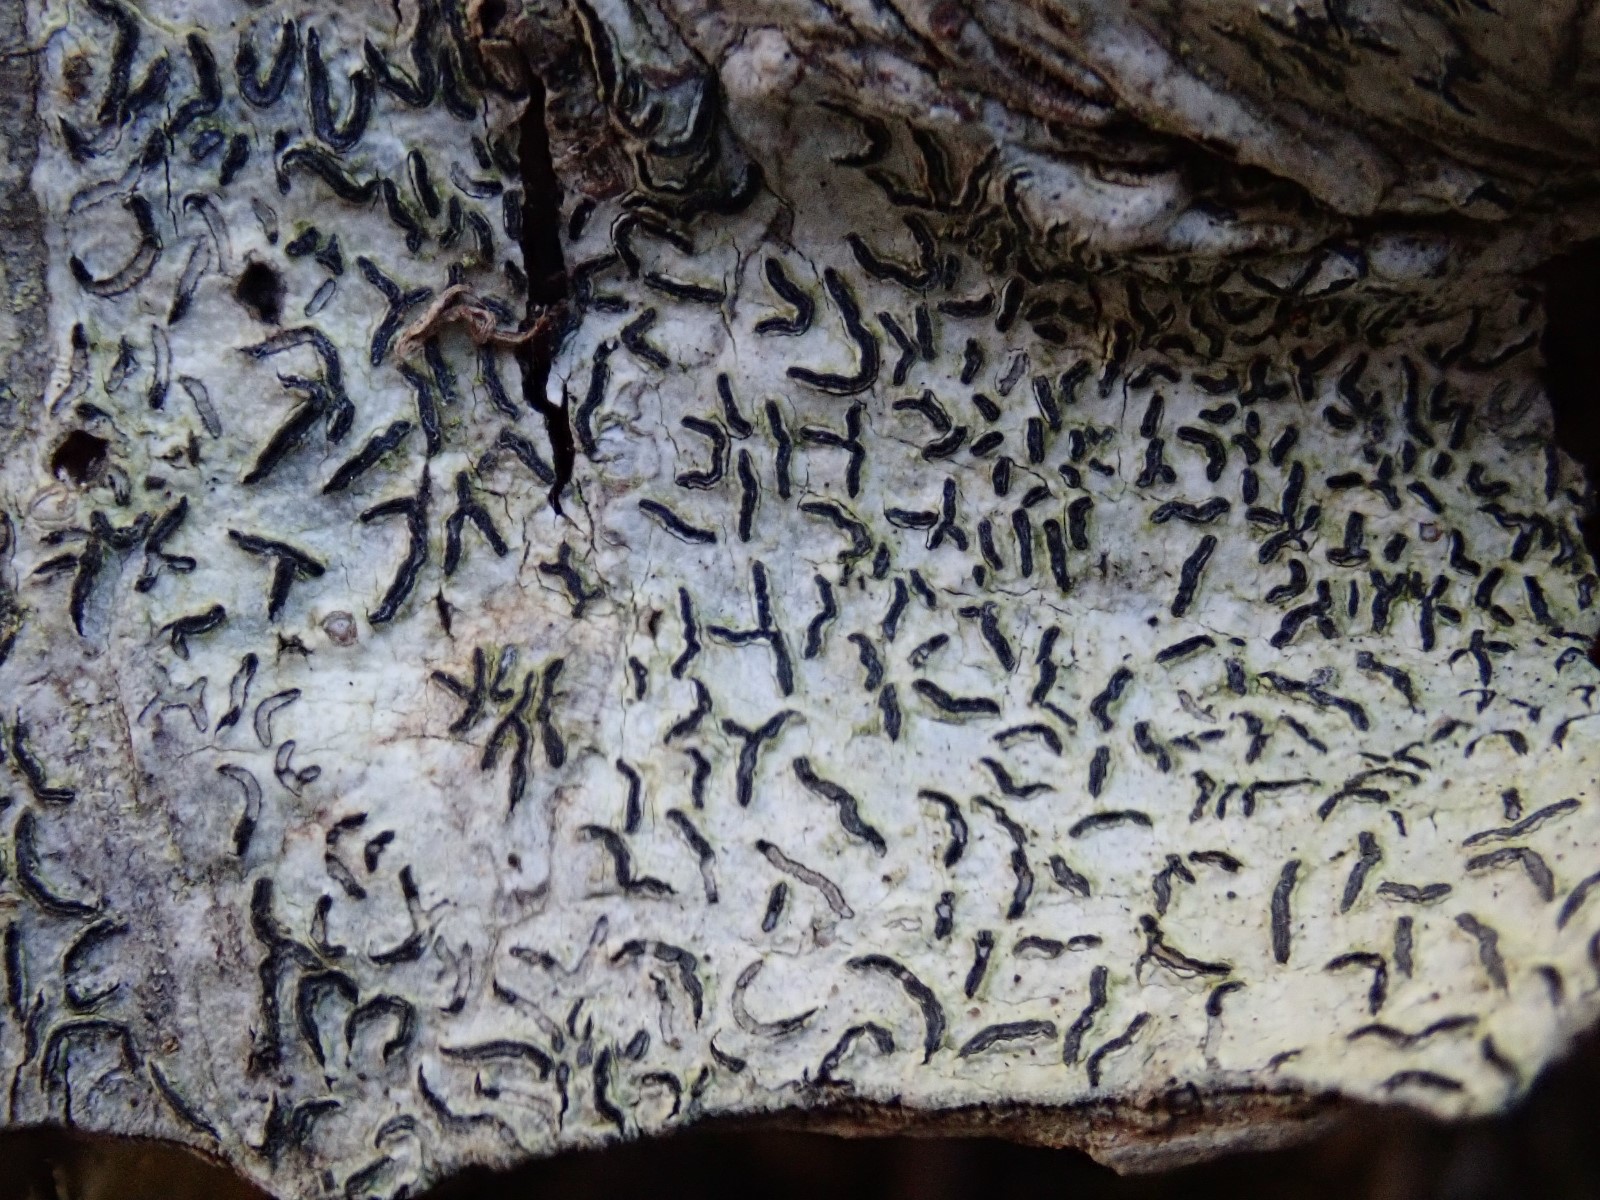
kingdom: Fungi
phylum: Ascomycota
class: Lecanoromycetes
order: Ostropales
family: Graphidaceae
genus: Graphis
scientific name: Graphis scripta
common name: almindelig skriftlav
